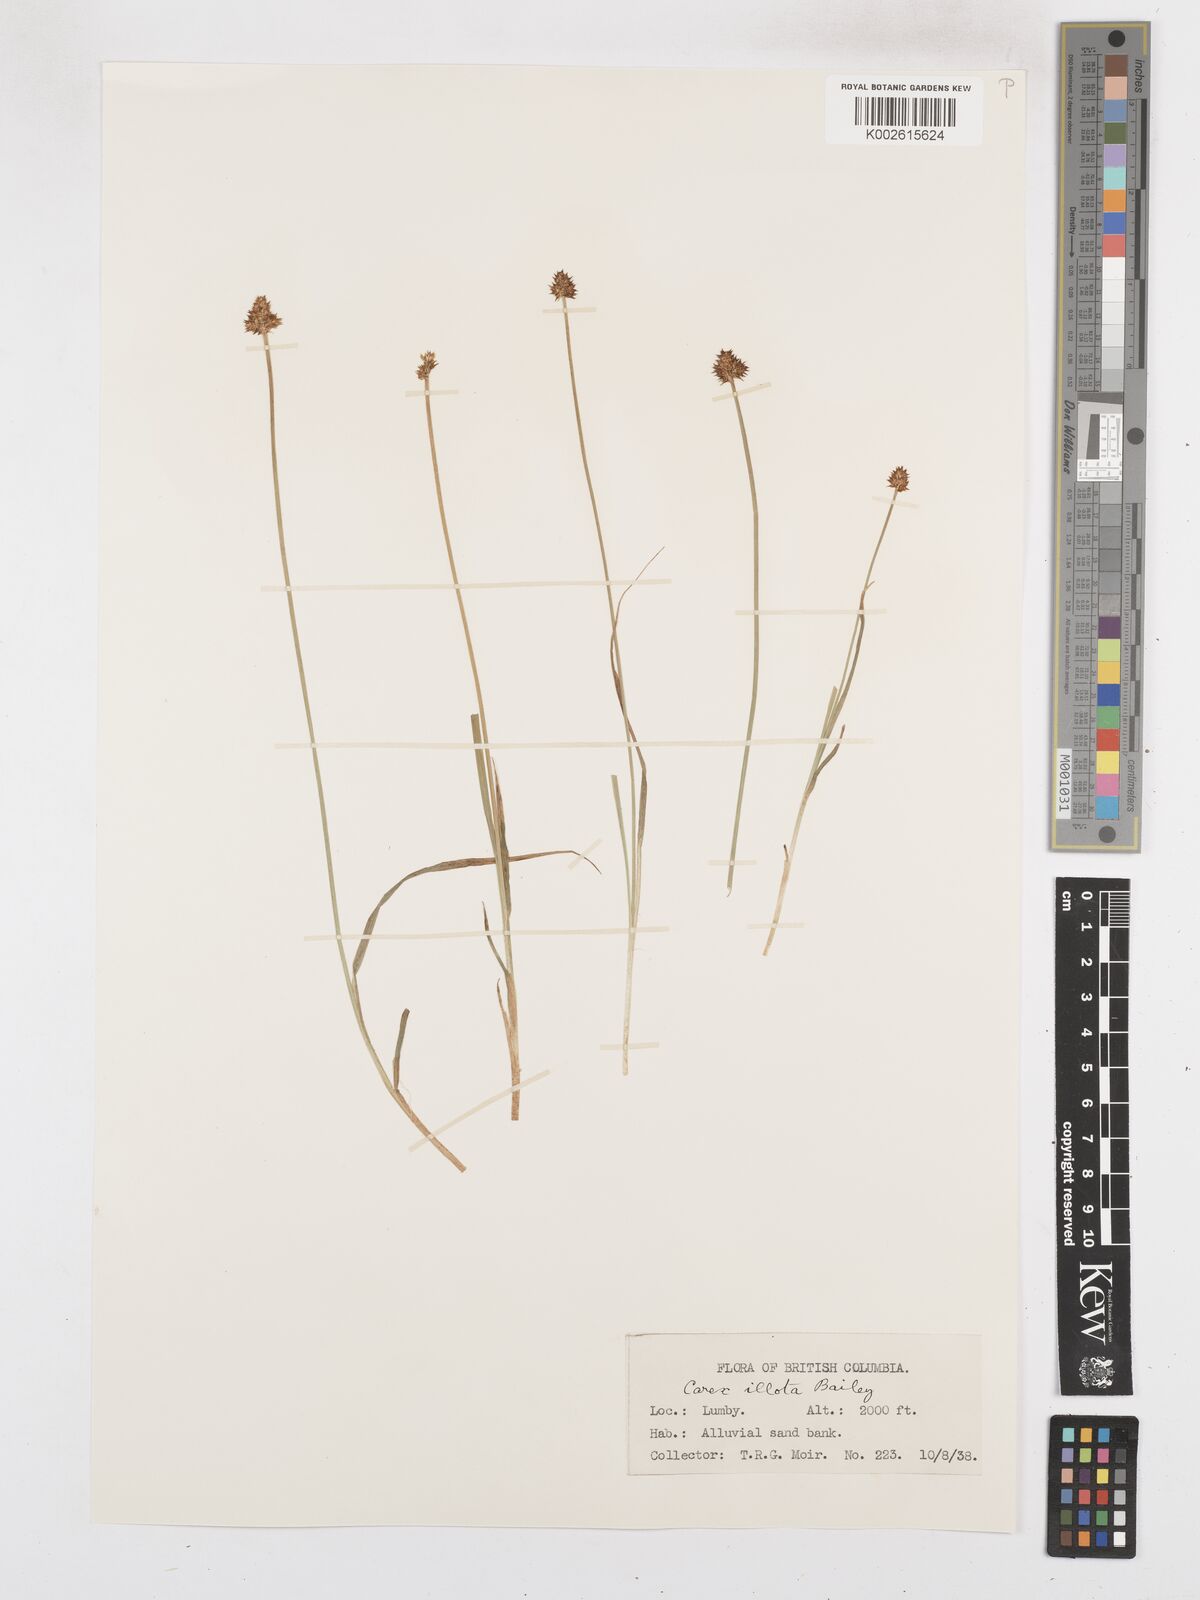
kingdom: Plantae
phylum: Tracheophyta
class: Liliopsida
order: Poales
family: Cyperaceae
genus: Carex
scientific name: Carex illota
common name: Sheep sedge
